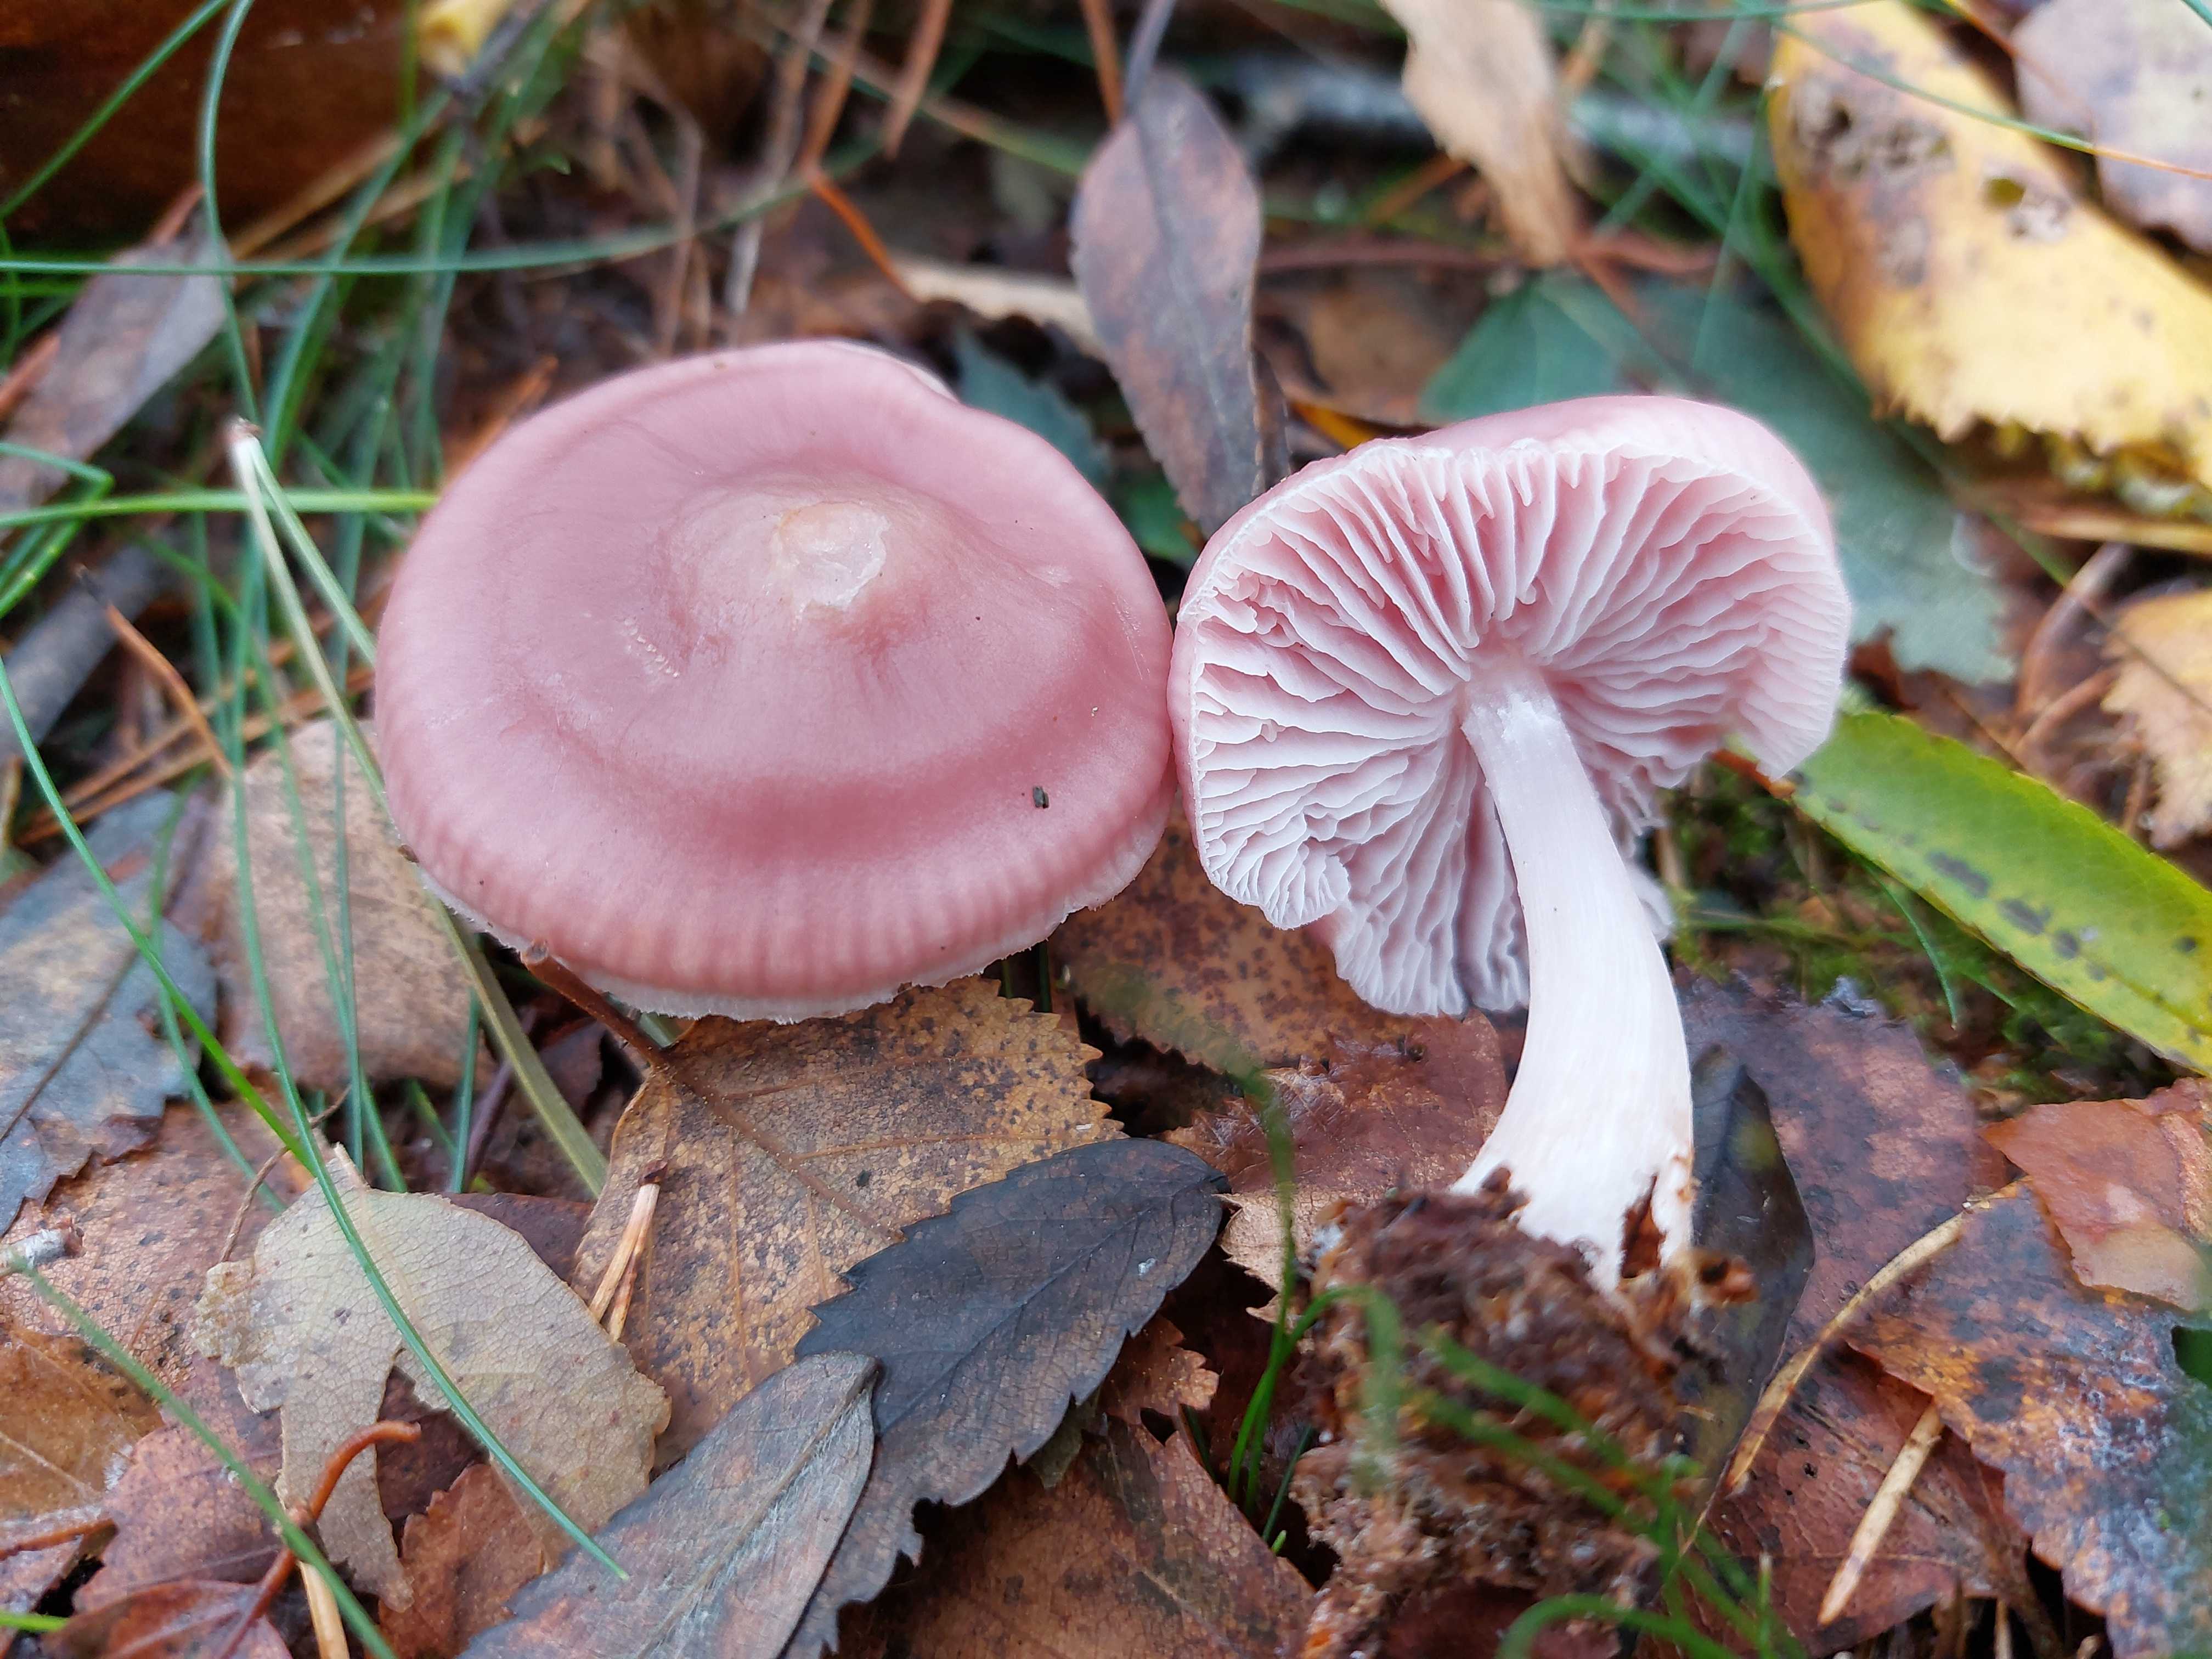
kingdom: Fungi
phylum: Basidiomycota
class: Agaricomycetes
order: Agaricales
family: Mycenaceae
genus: Mycena
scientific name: Mycena rosea
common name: rosa huesvamp
